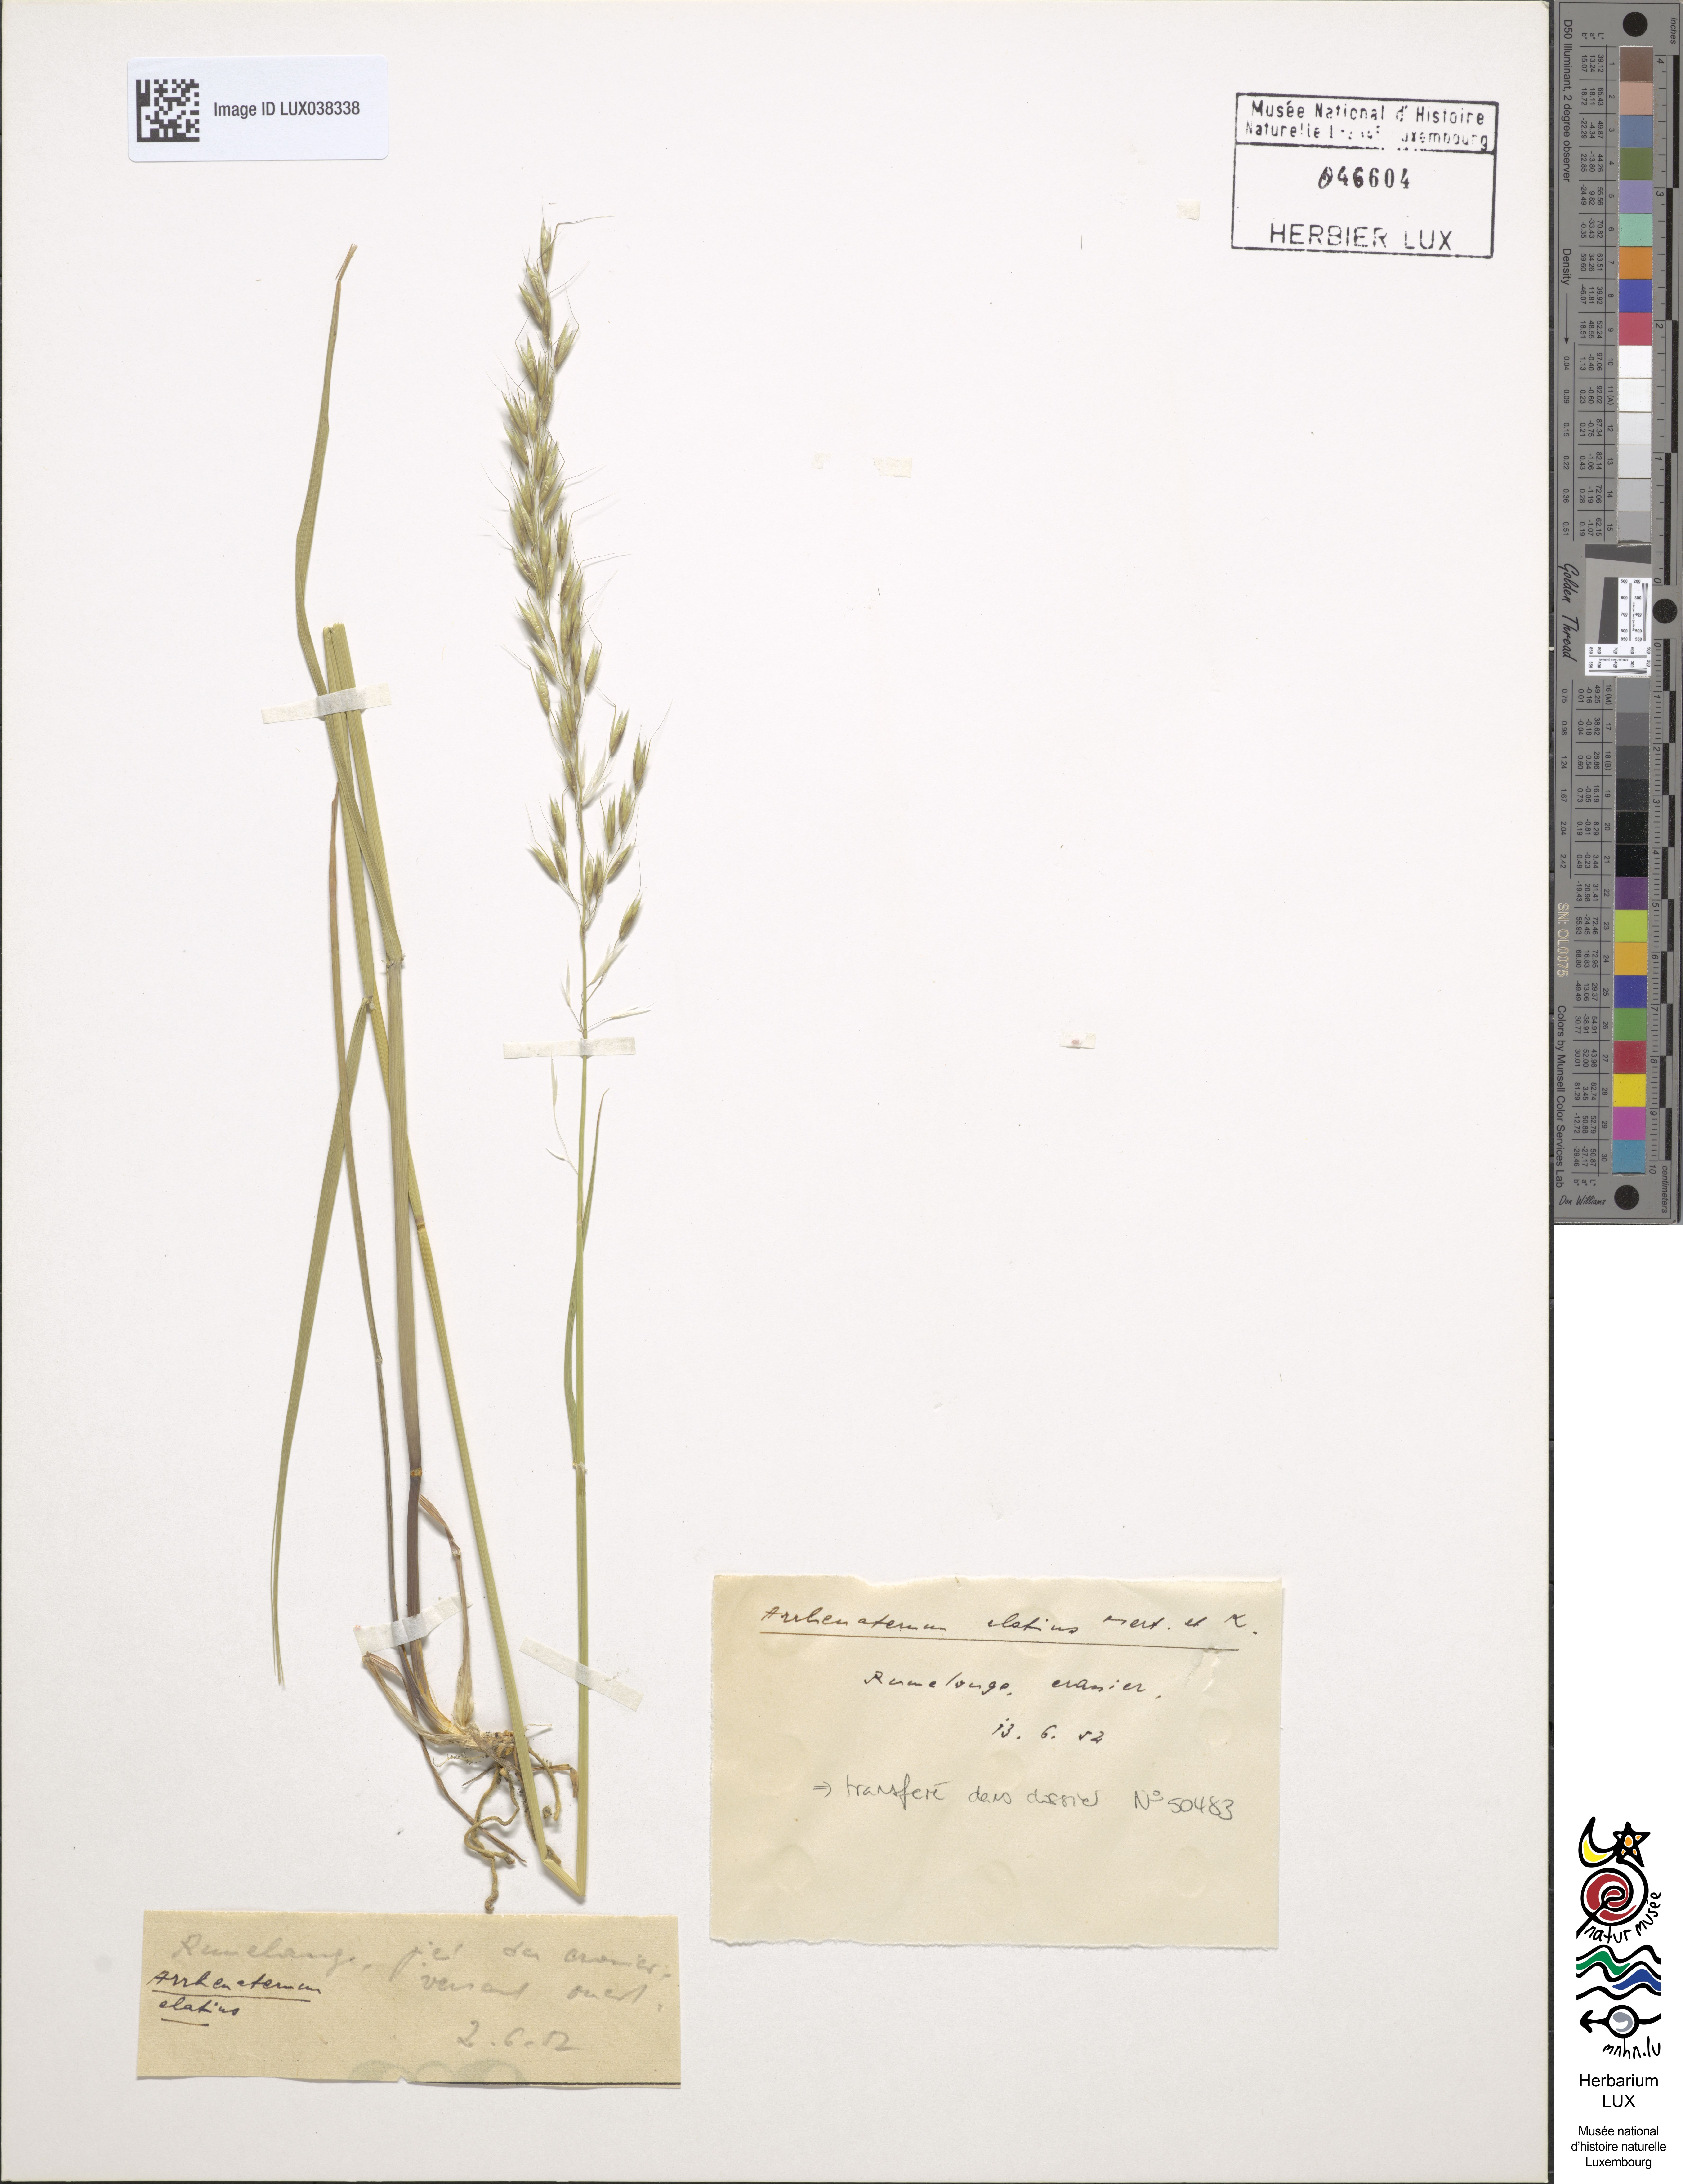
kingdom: Plantae
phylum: Tracheophyta
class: Liliopsida
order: Poales
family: Poaceae
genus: Arrhenatherum
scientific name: Arrhenatherum elatius
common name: Tall oatgrass
